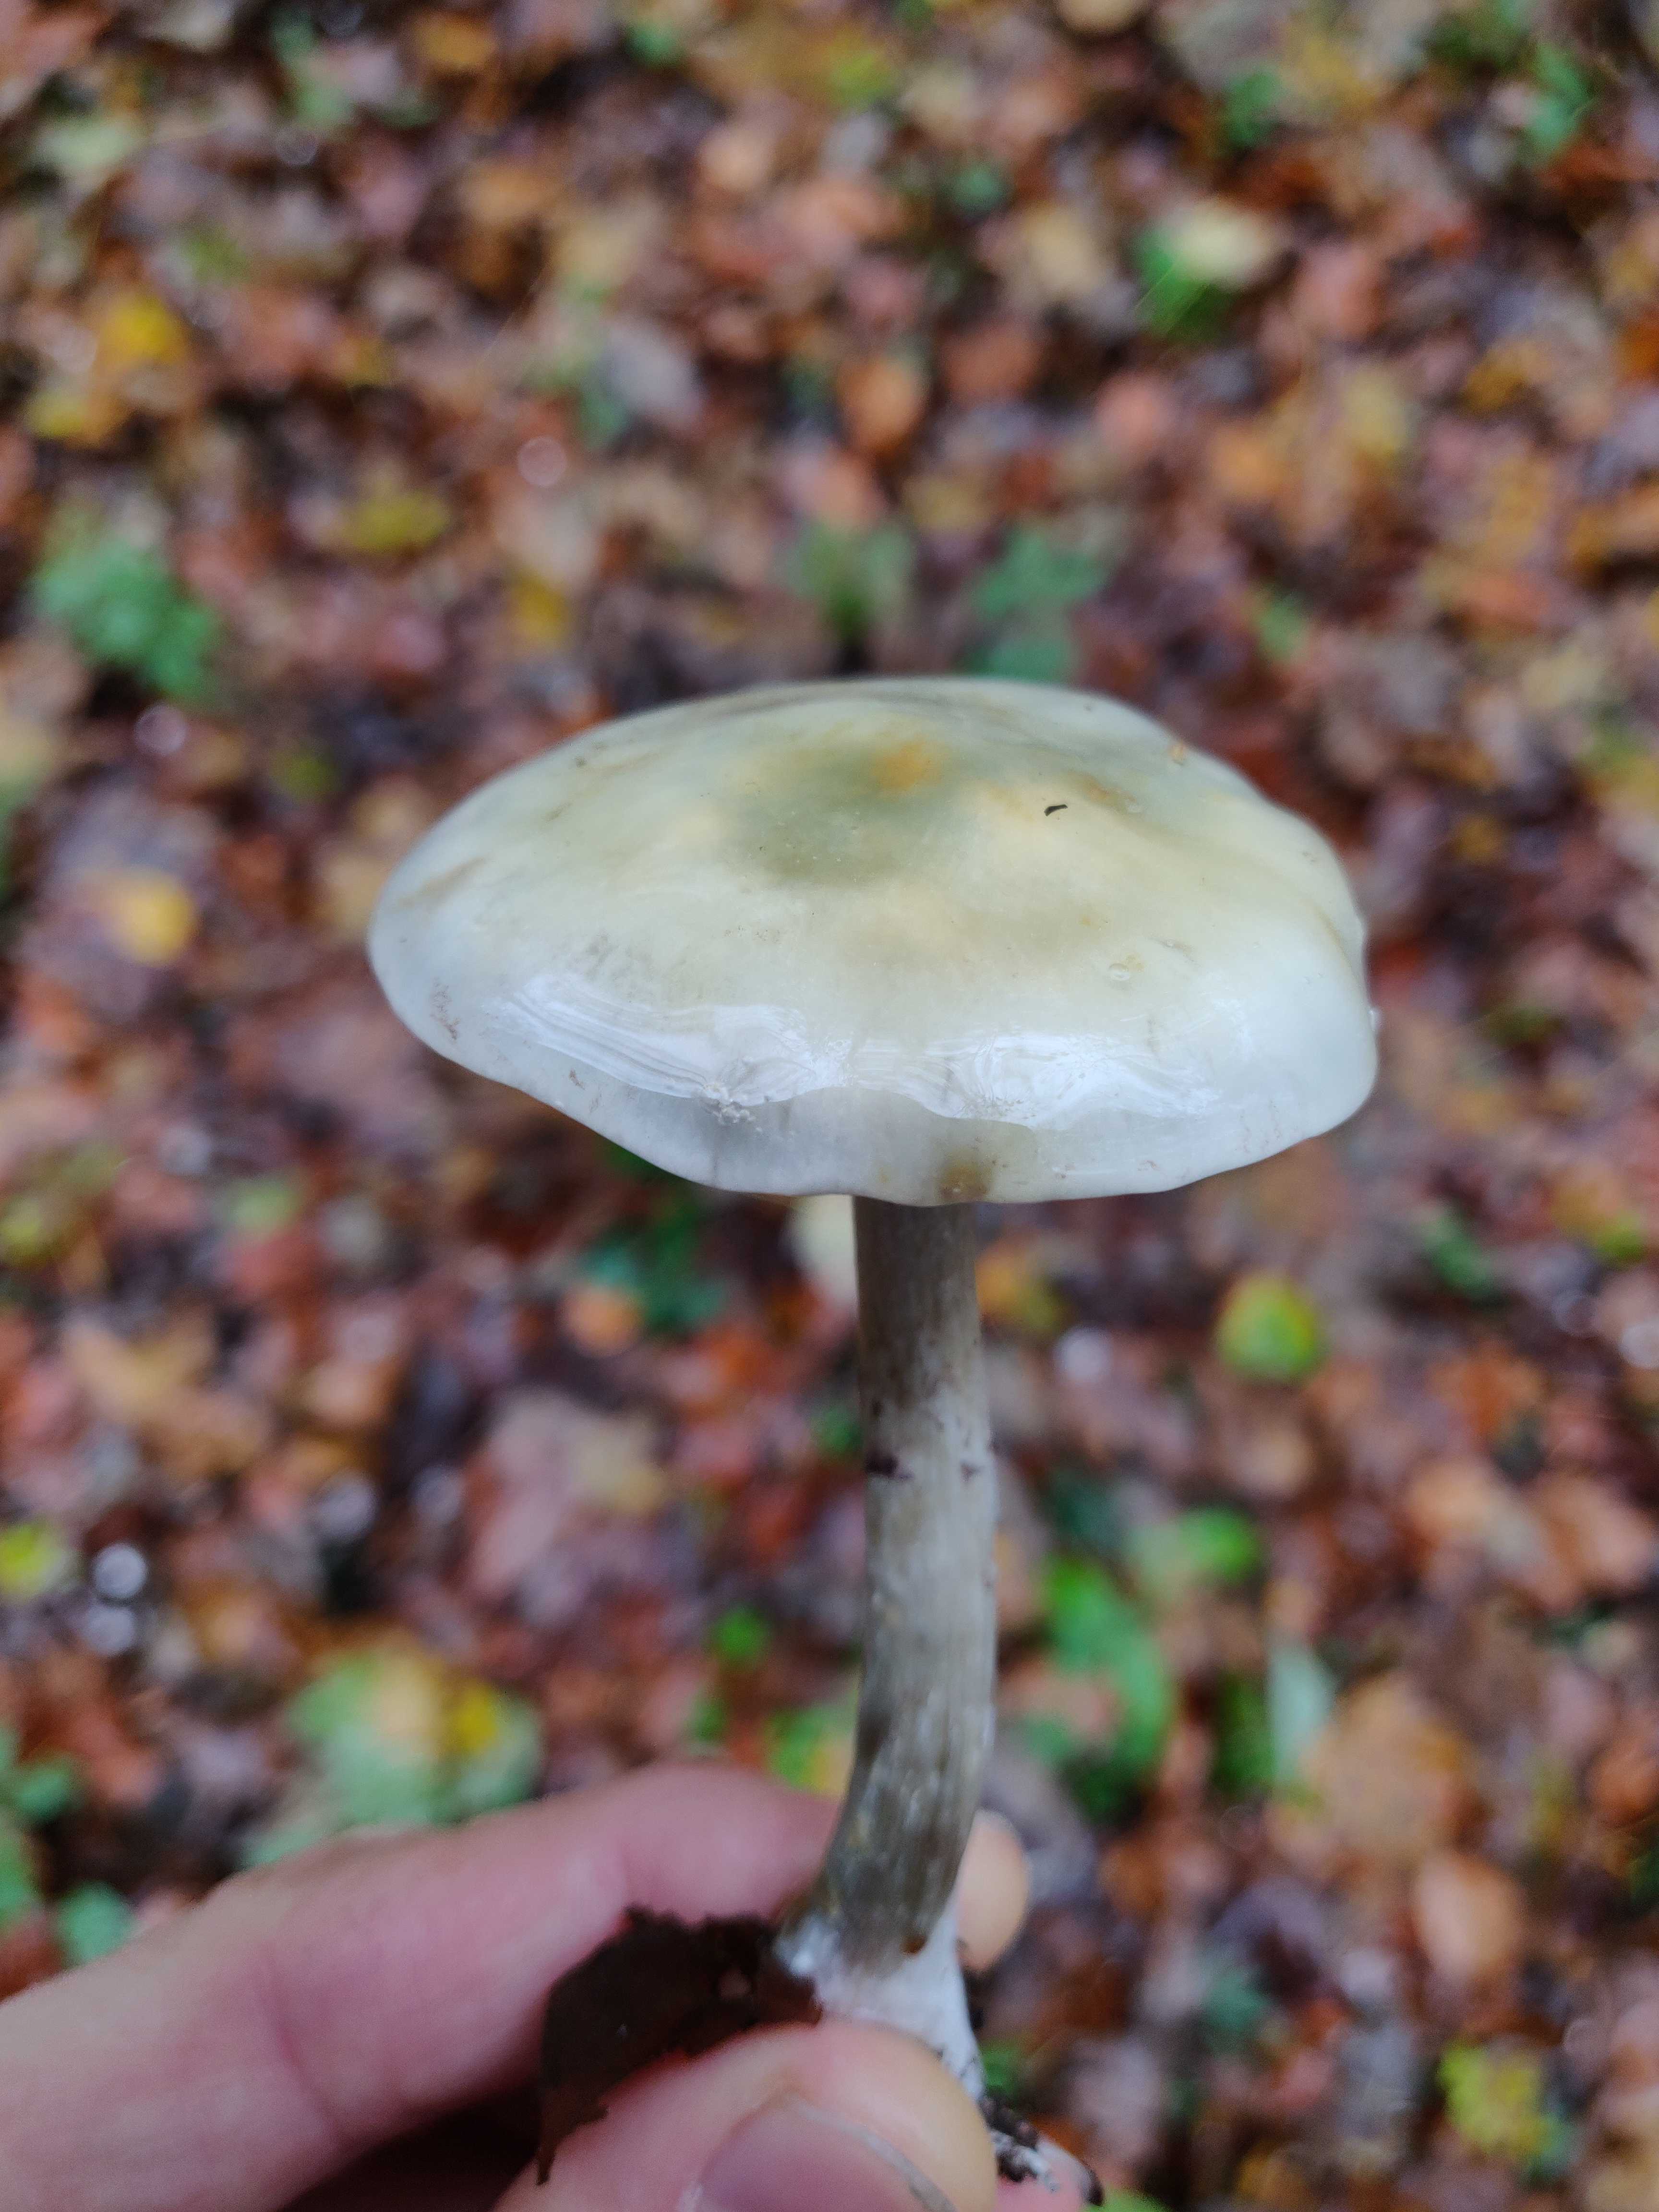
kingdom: Fungi
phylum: Basidiomycota
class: Agaricomycetes
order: Agaricales
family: Strophariaceae
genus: Stropharia
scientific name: Stropharia cyanea
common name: blågrøn bredblad
